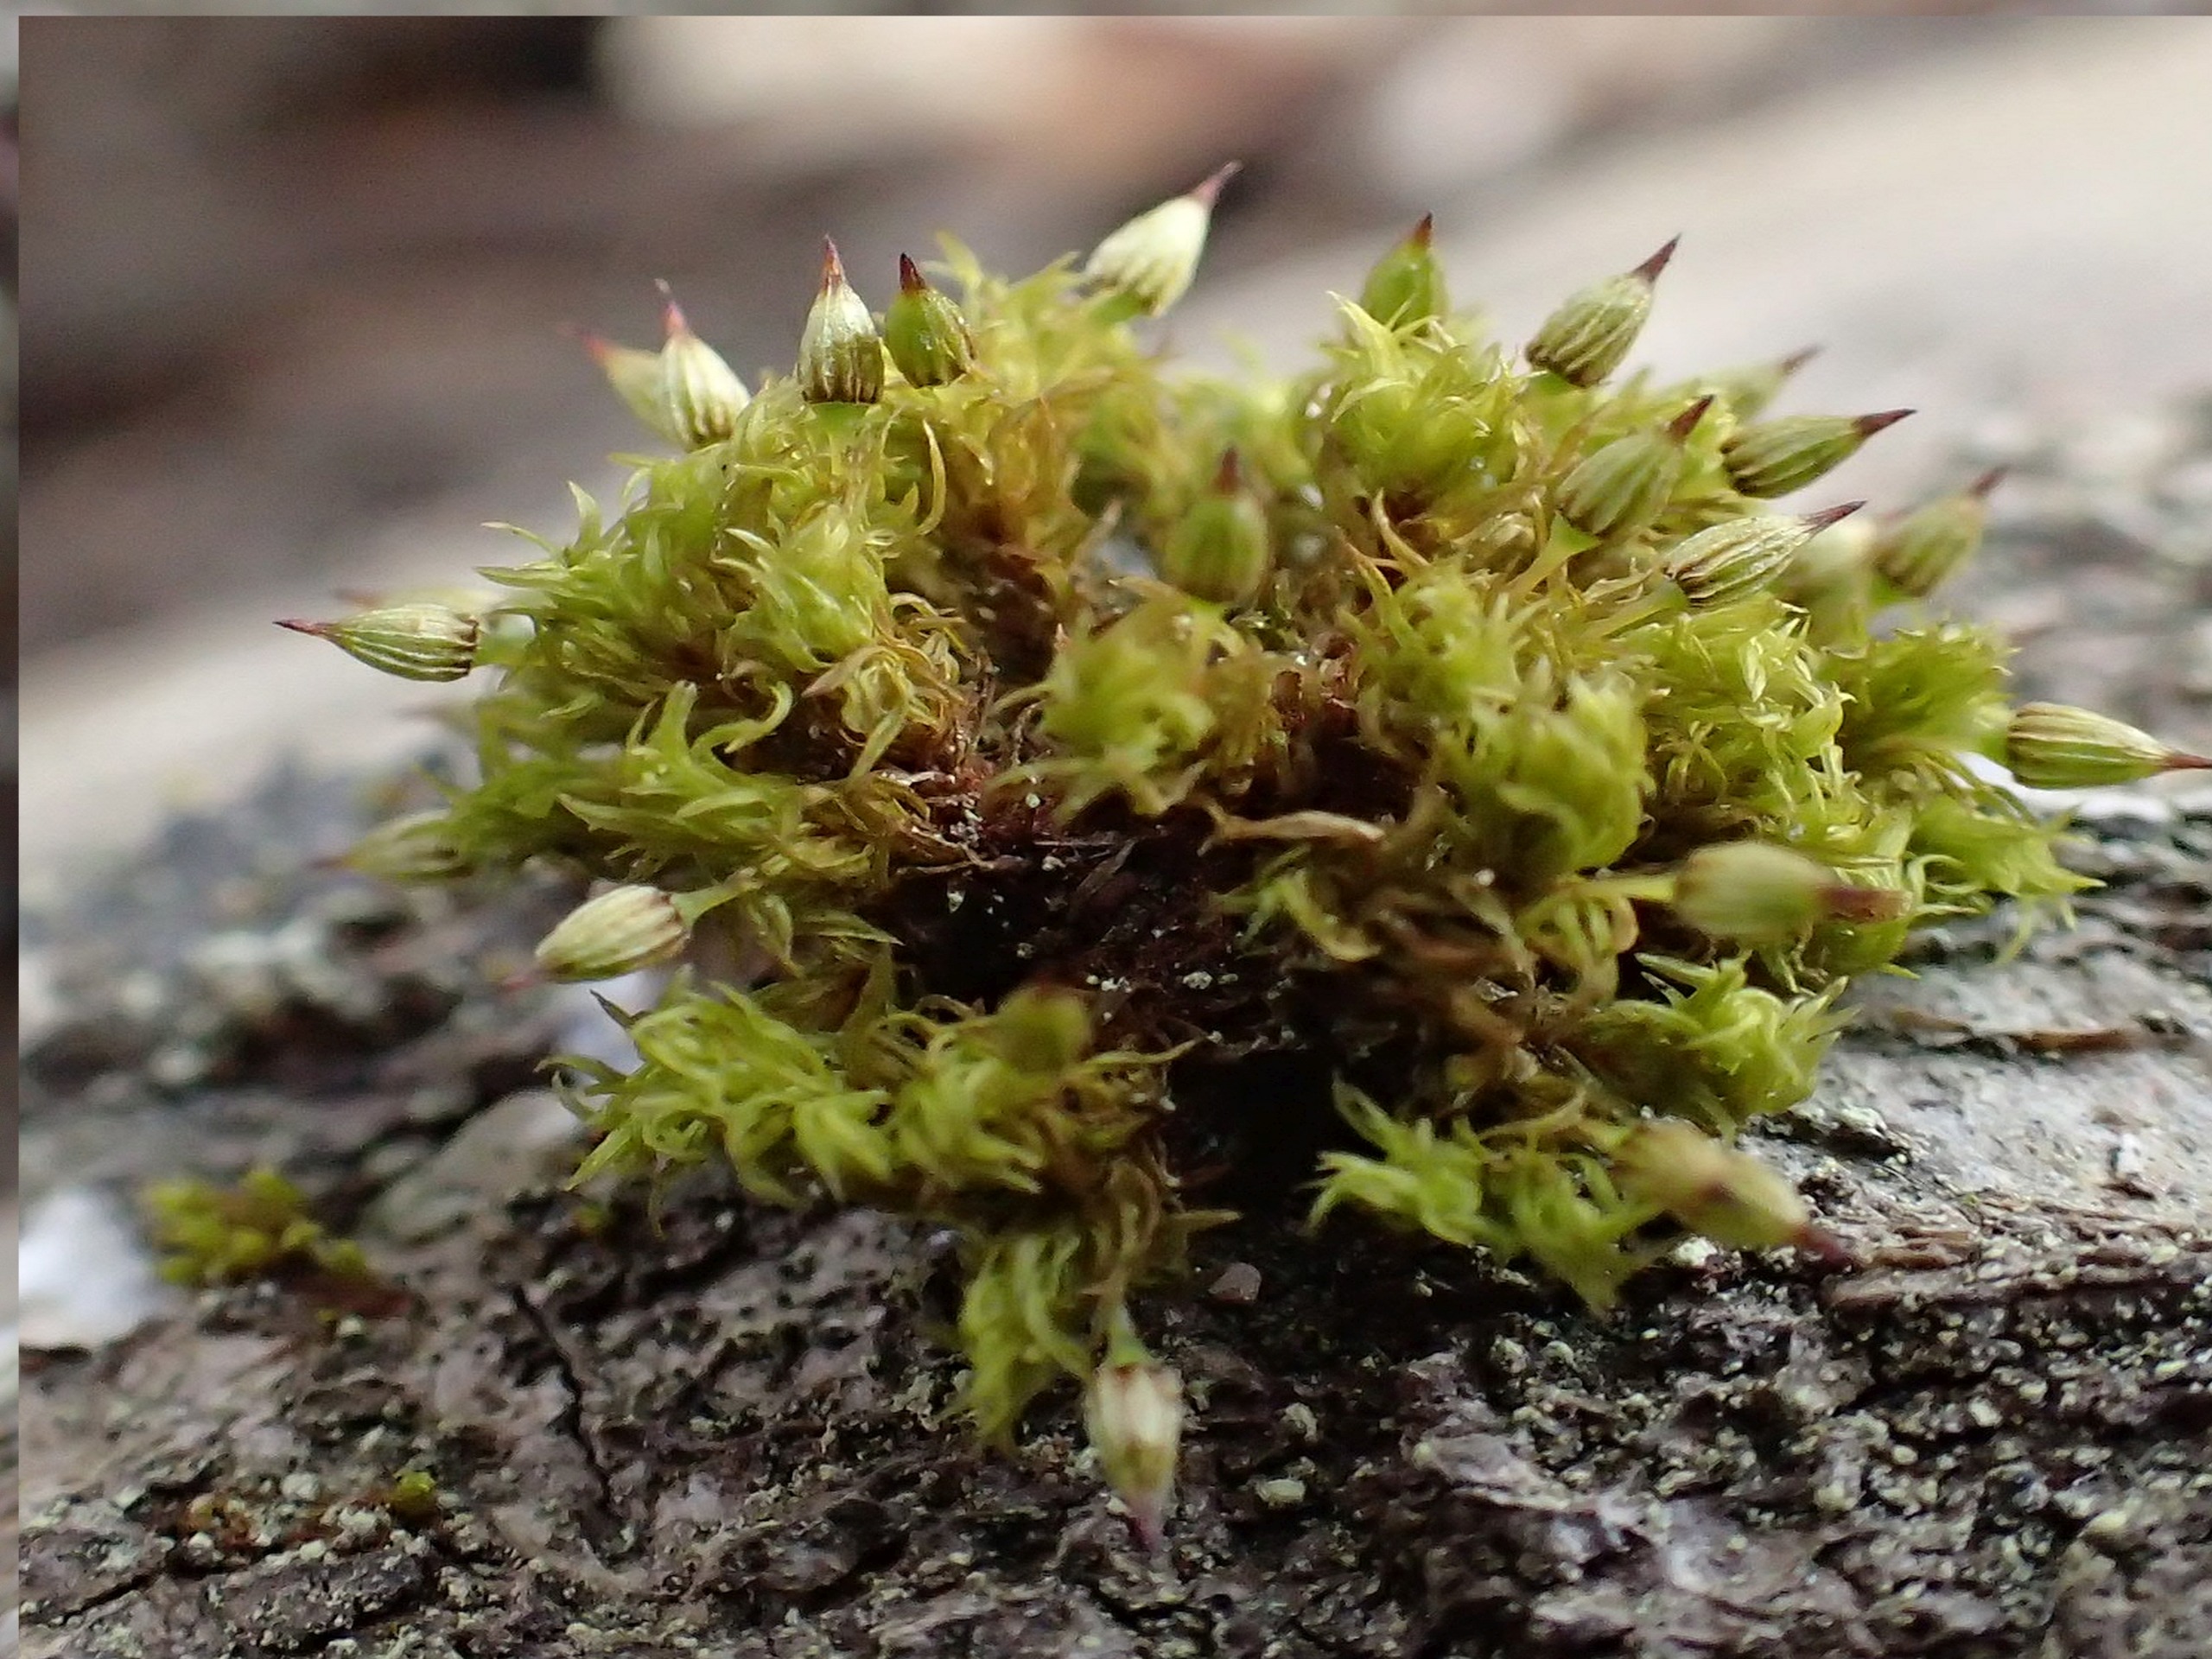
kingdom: Plantae
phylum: Bryophyta
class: Bryopsida
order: Orthotrichales
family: Orthotrichaceae
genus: Orthotrichum
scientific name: Orthotrichum pulchellum
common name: Smuk furehætte
